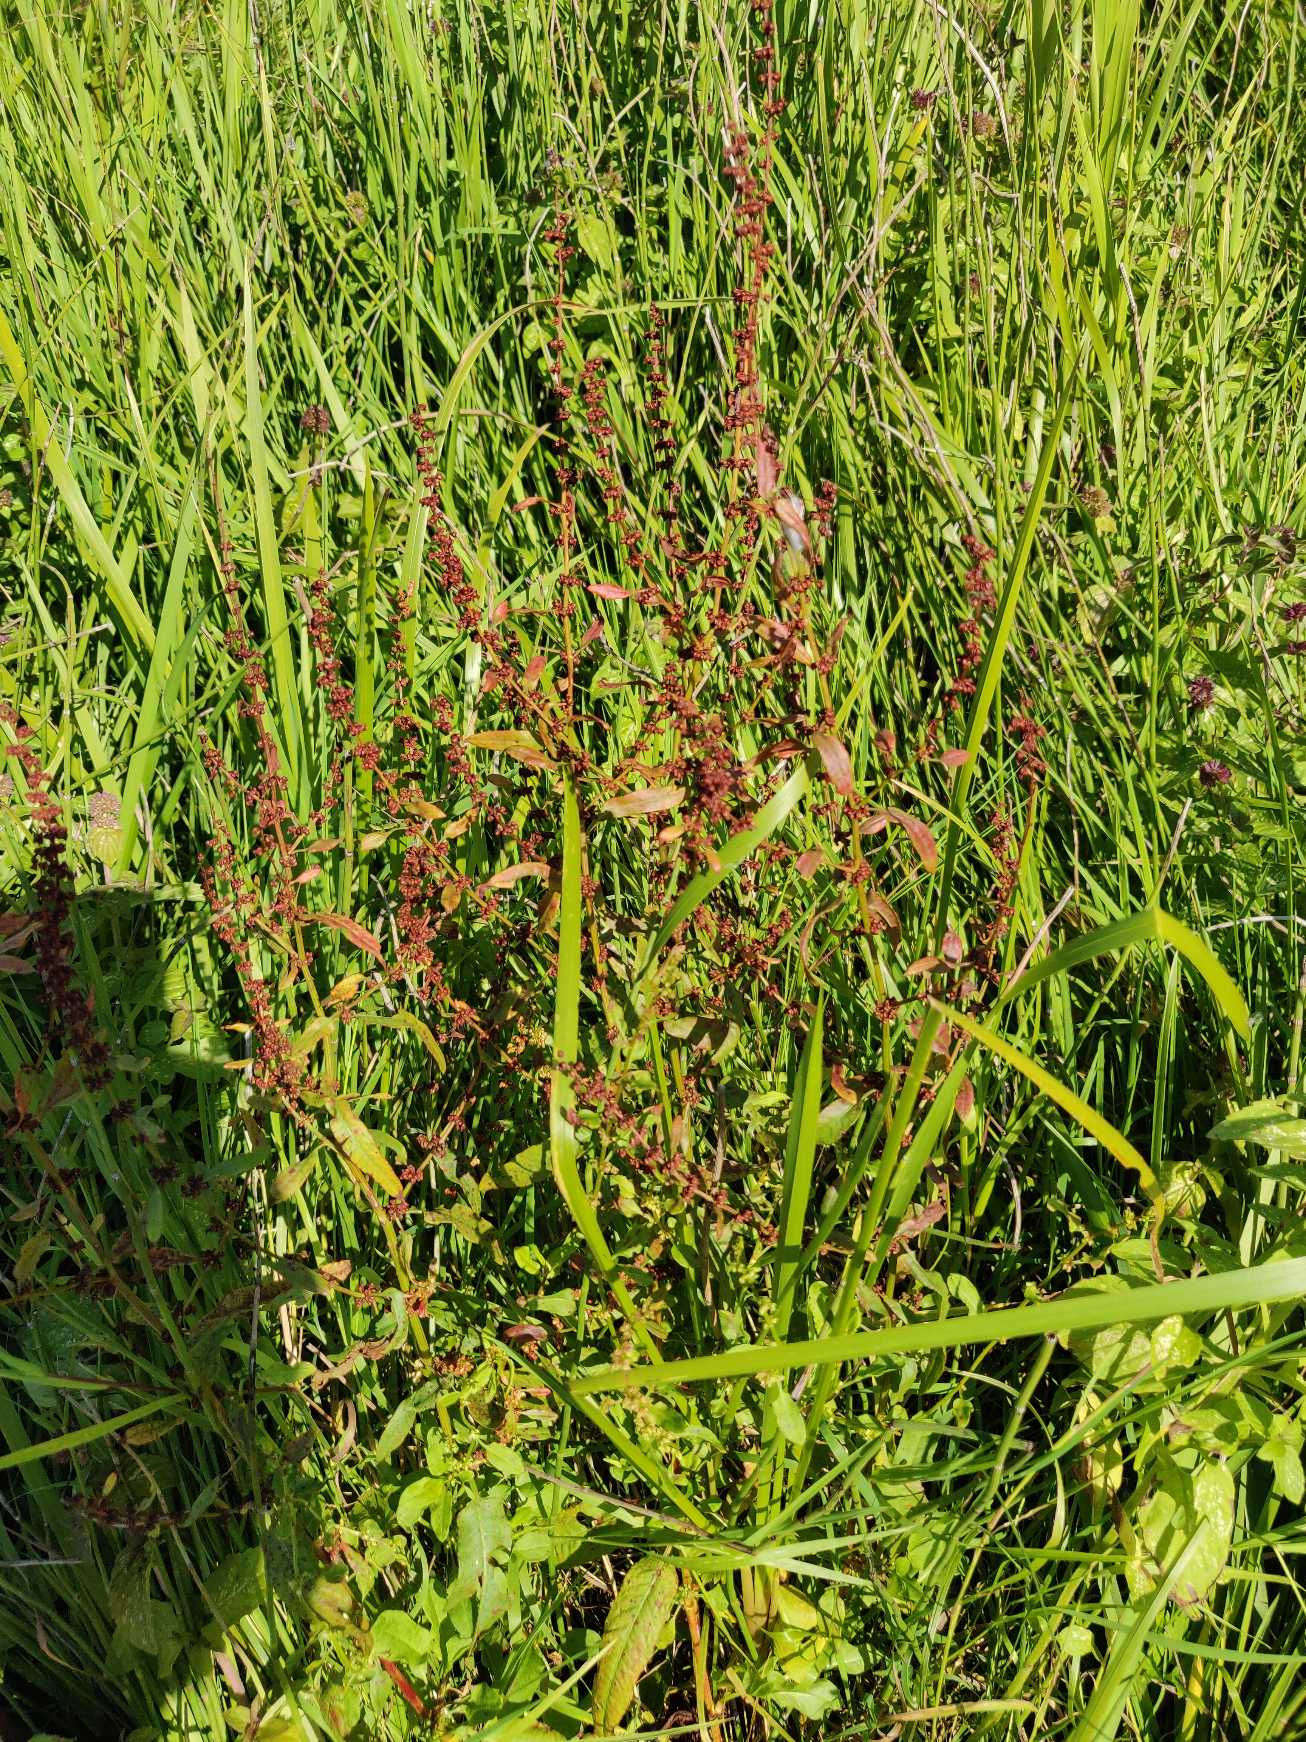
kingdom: Plantae
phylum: Tracheophyta
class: Magnoliopsida
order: Caryophyllales
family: Polygonaceae
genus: Rumex
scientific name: Rumex conglomeratus
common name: Nøgle-skræppe
